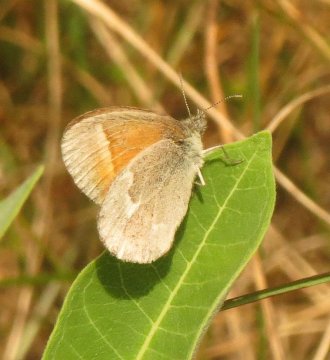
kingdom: Animalia
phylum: Arthropoda
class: Insecta
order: Lepidoptera
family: Nymphalidae
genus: Coenonympha
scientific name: Coenonympha tullia
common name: Large Heath
